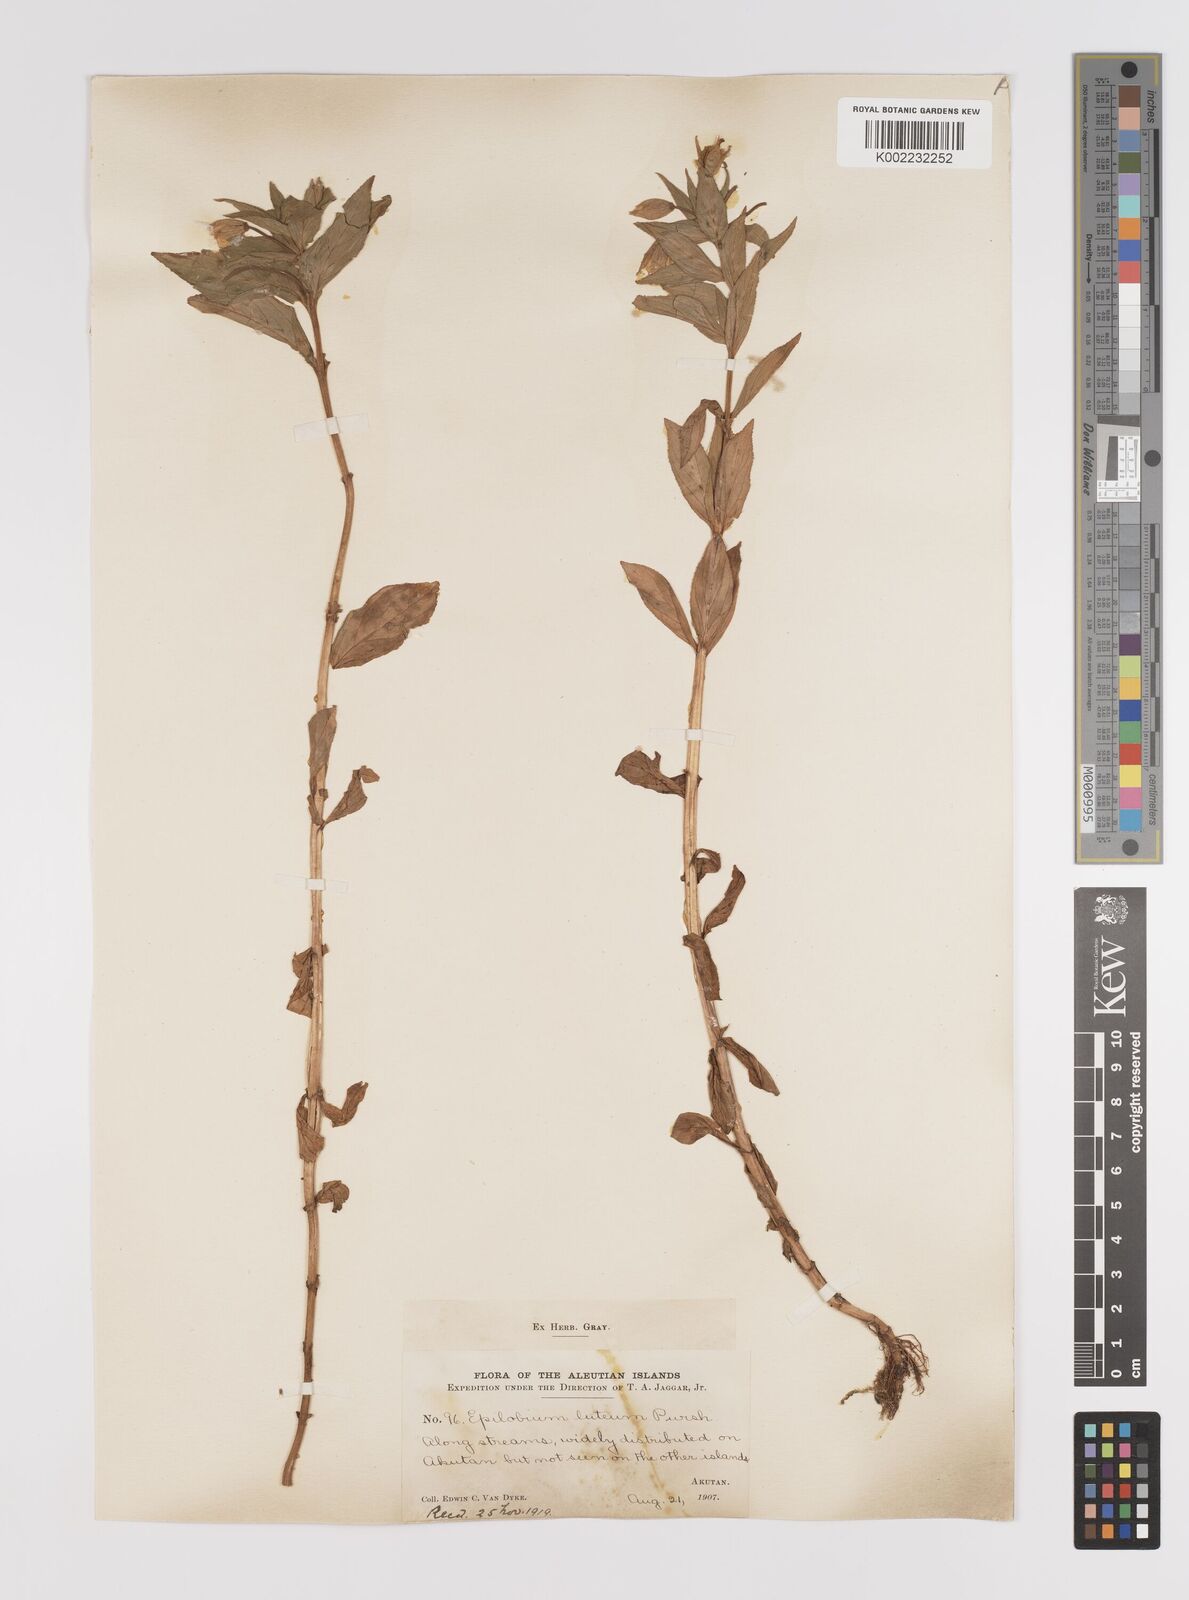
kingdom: Plantae
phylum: Tracheophyta
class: Magnoliopsida
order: Myrtales
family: Onagraceae
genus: Epilobium
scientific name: Epilobium luteum
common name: Yellow willowherb
